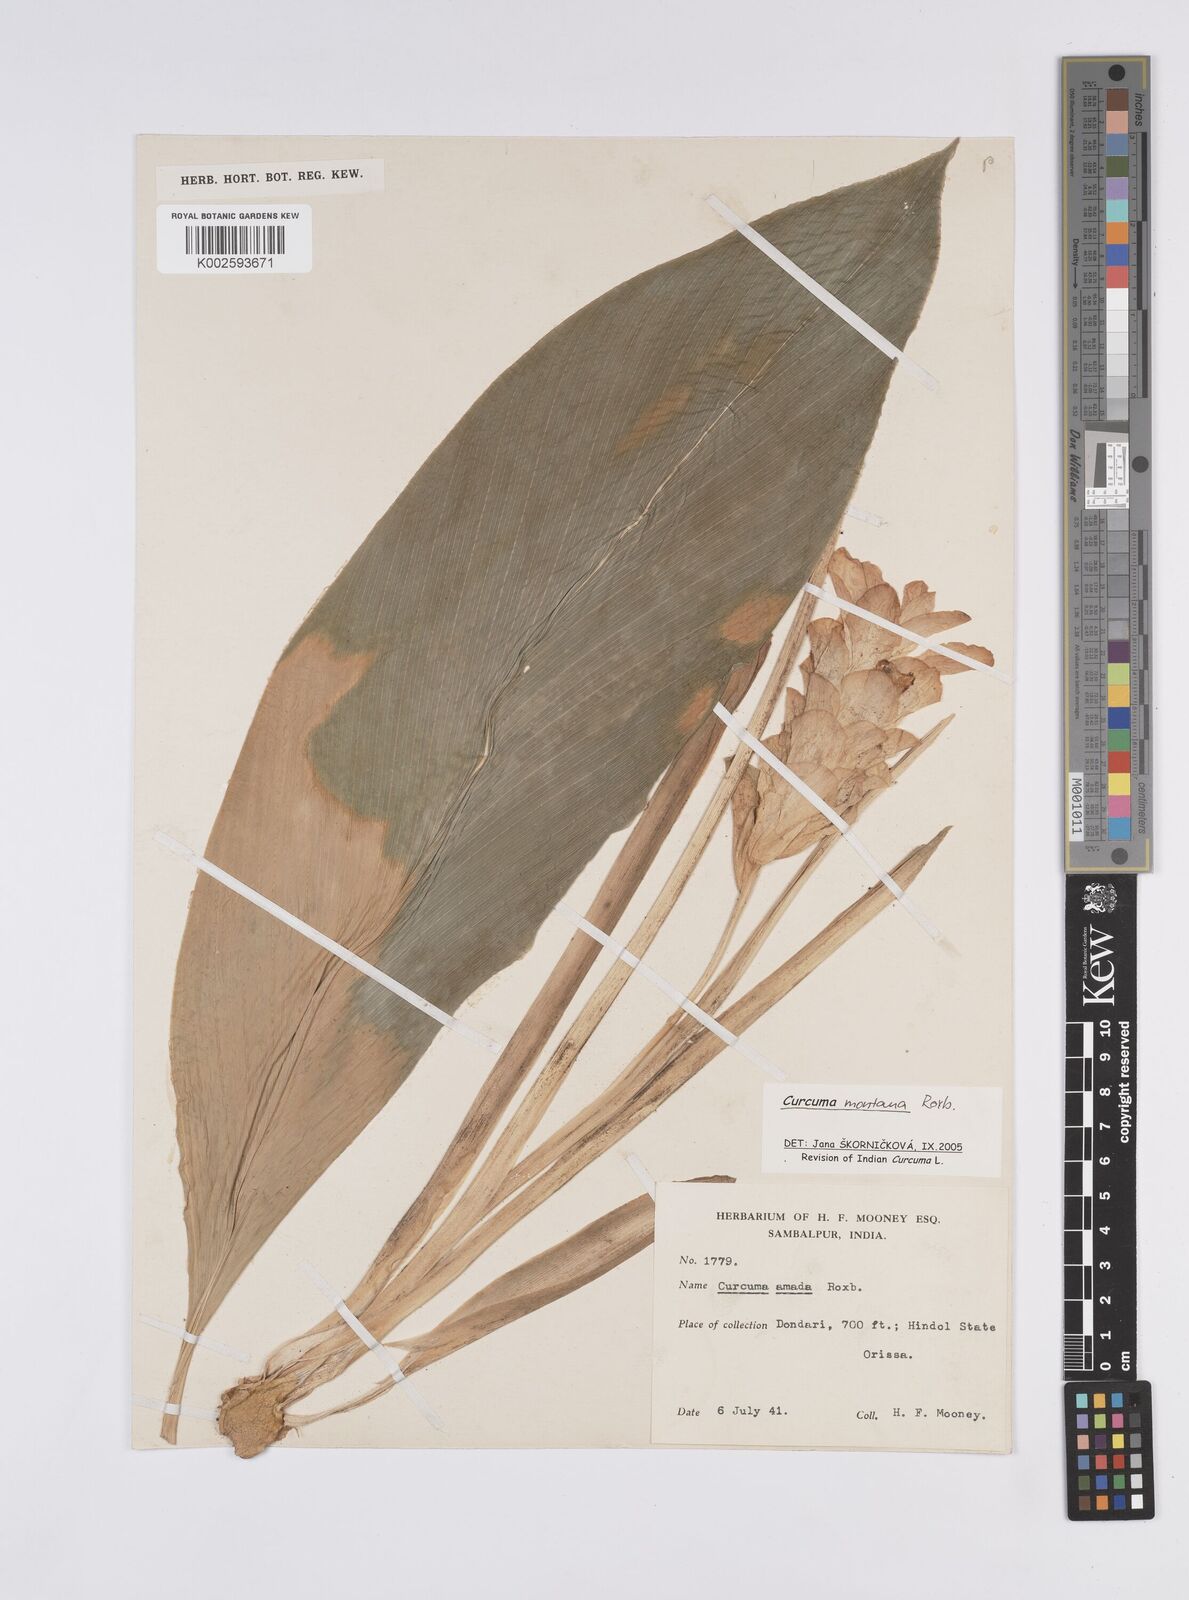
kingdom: Plantae
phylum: Tracheophyta
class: Liliopsida
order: Zingiberales
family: Zingiberaceae
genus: Curcuma
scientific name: Curcuma montana
